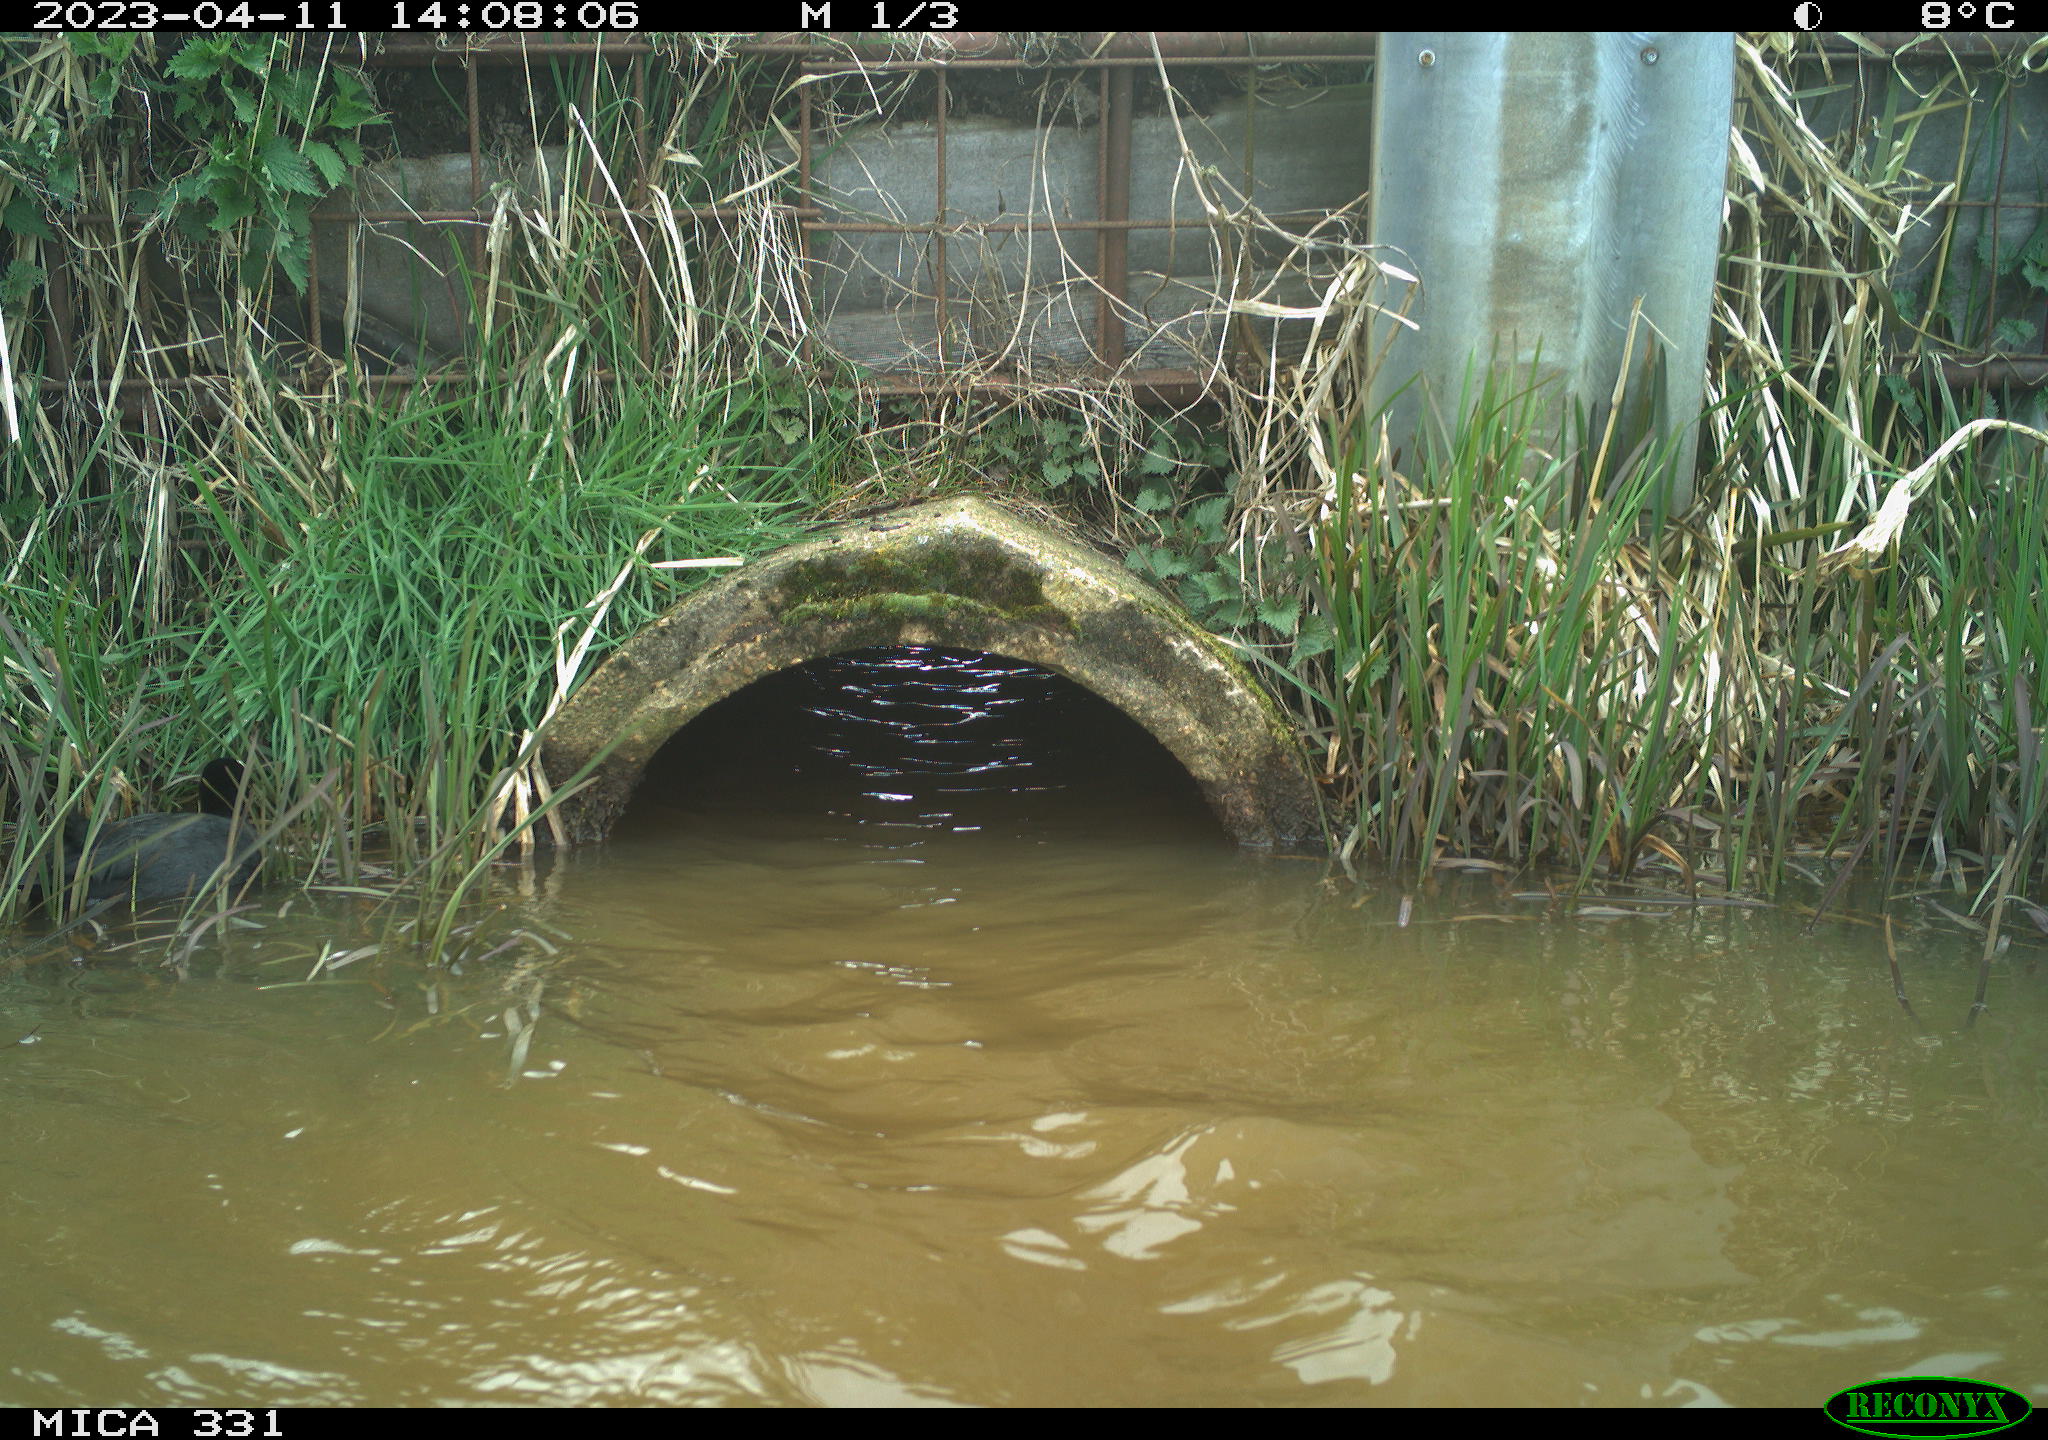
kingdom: Animalia
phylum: Chordata
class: Aves
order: Gruiformes
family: Rallidae
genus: Fulica
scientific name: Fulica atra
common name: Eurasian coot
